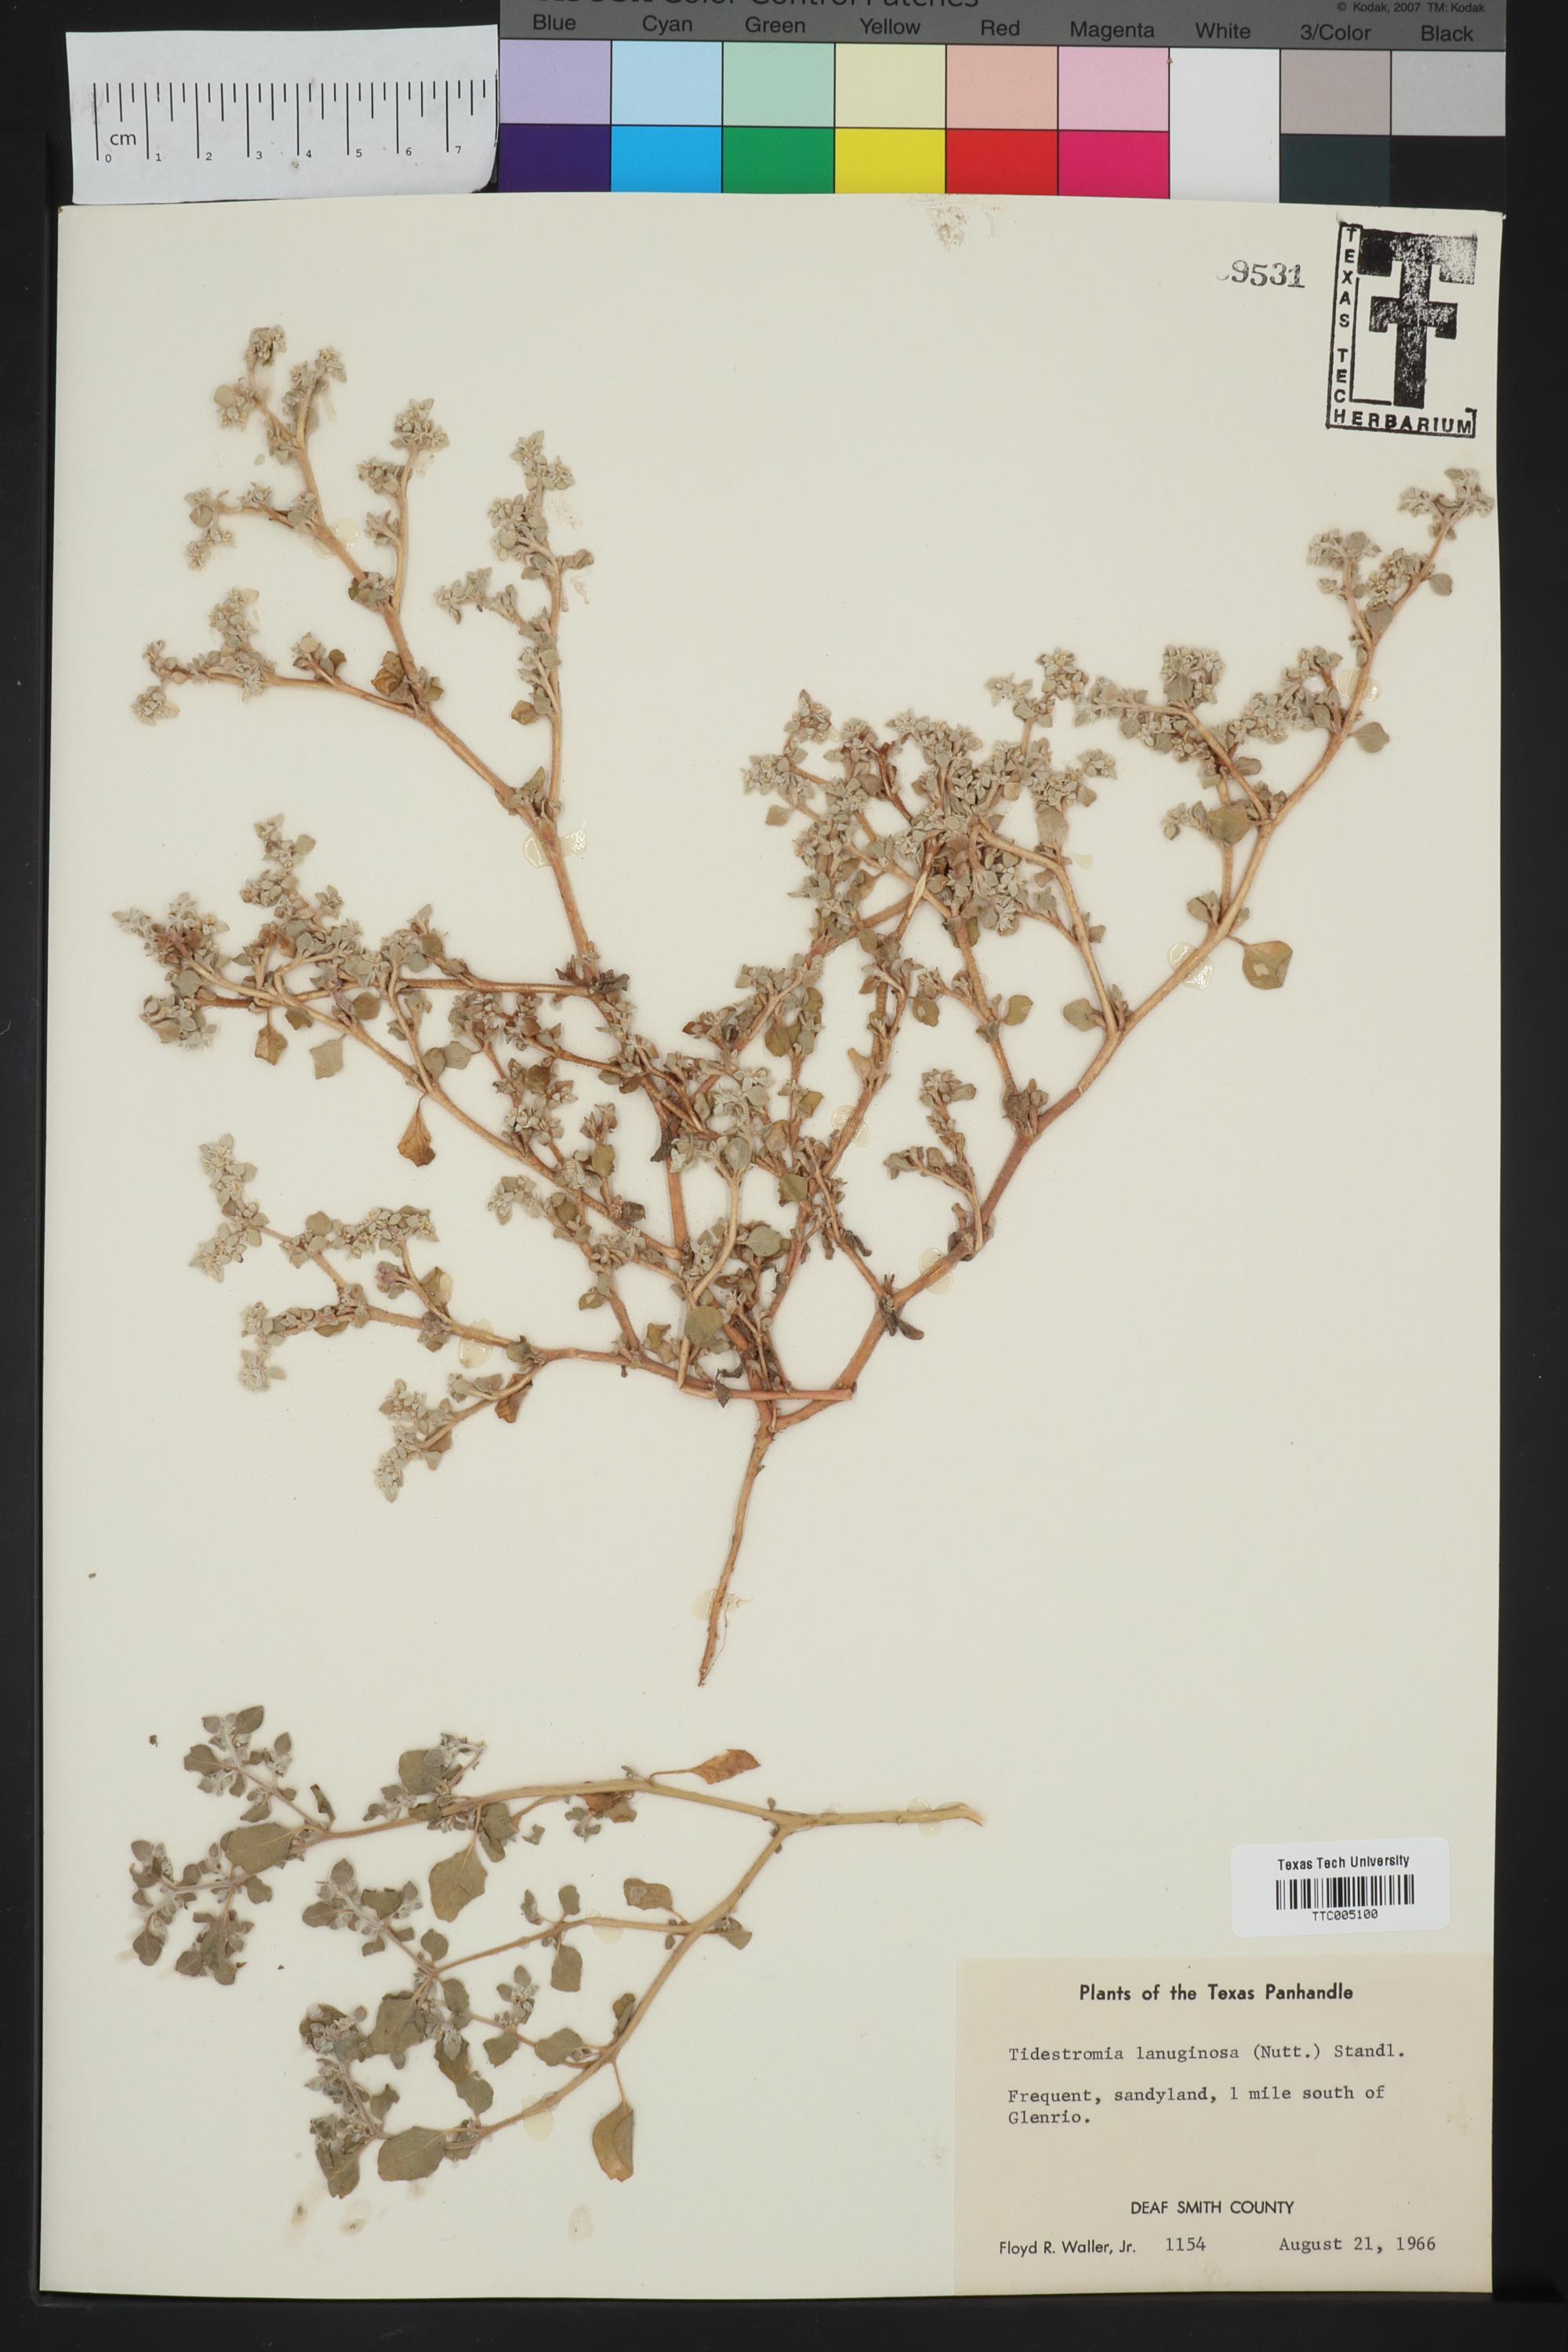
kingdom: Plantae
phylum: Tracheophyta
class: Magnoliopsida
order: Caryophyllales
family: Amaranthaceae
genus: Tidestromia
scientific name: Tidestromia lanuginosa
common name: Woolly tidestromia
